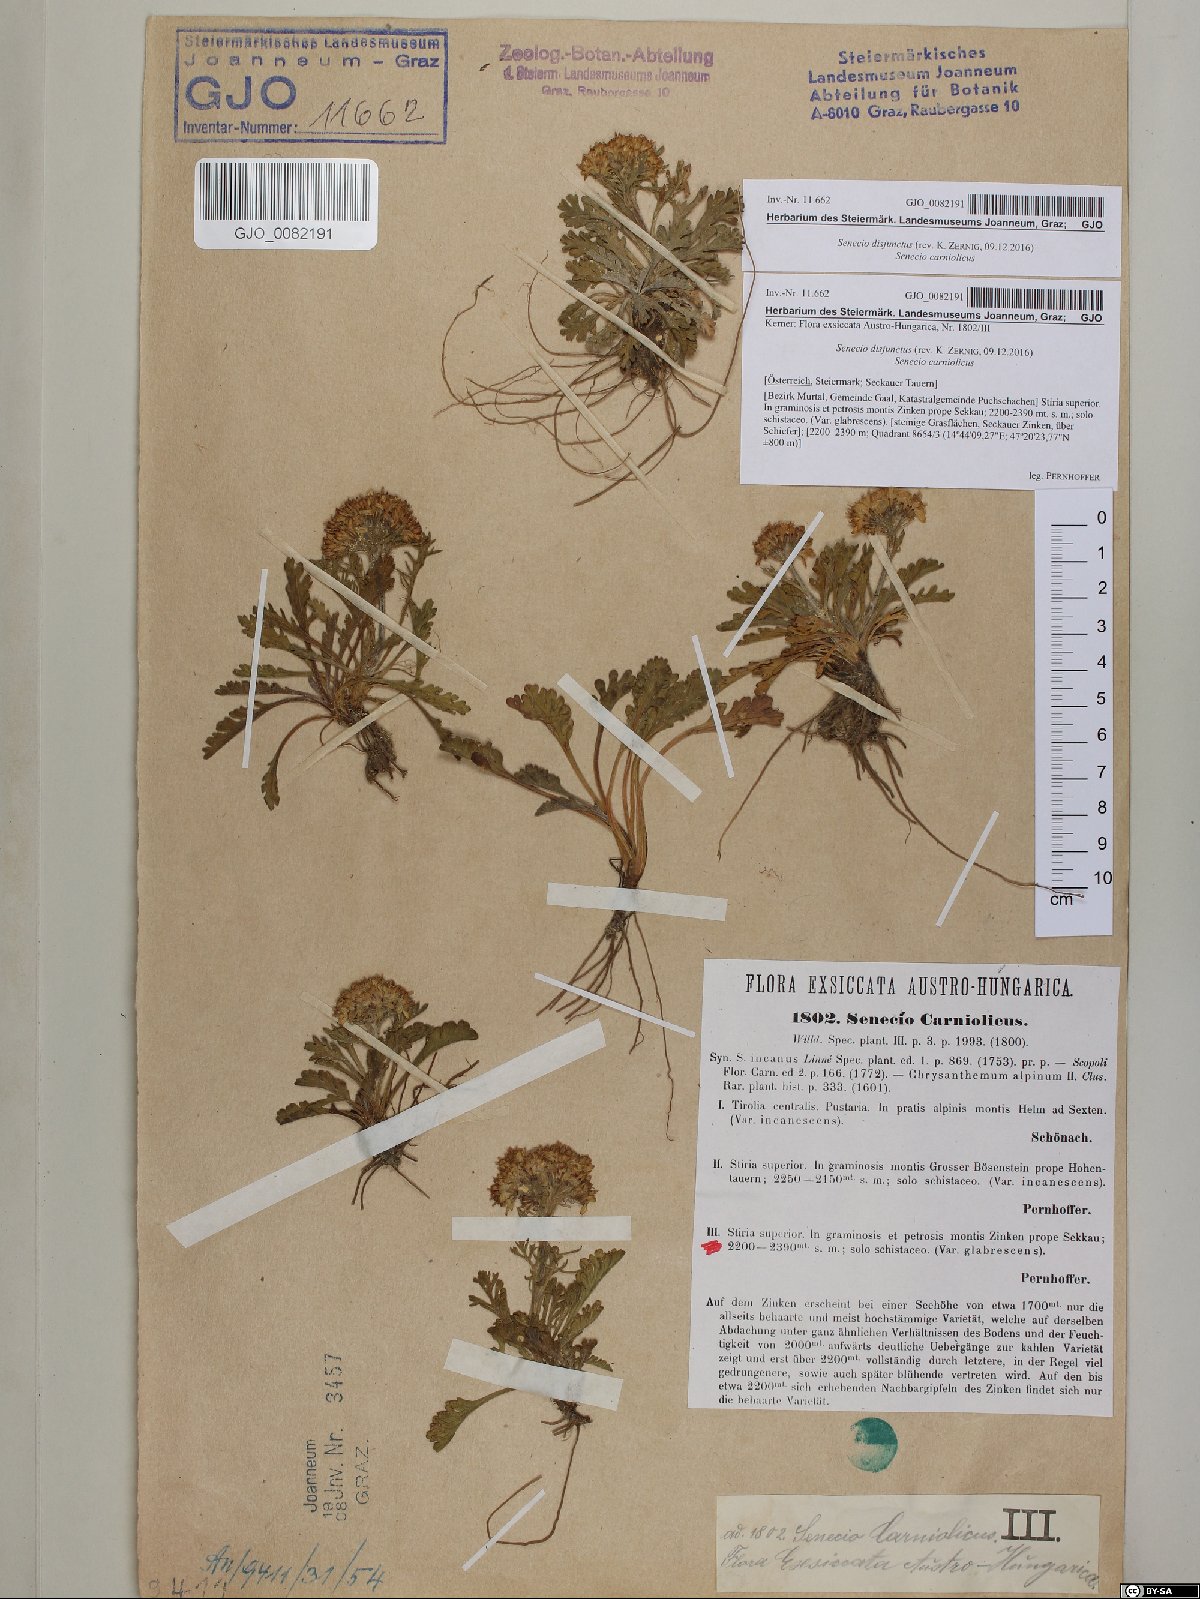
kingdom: Plantae
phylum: Tracheophyta
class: Magnoliopsida
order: Asterales
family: Asteraceae
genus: Jacobaea
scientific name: Jacobaea disjuncta
